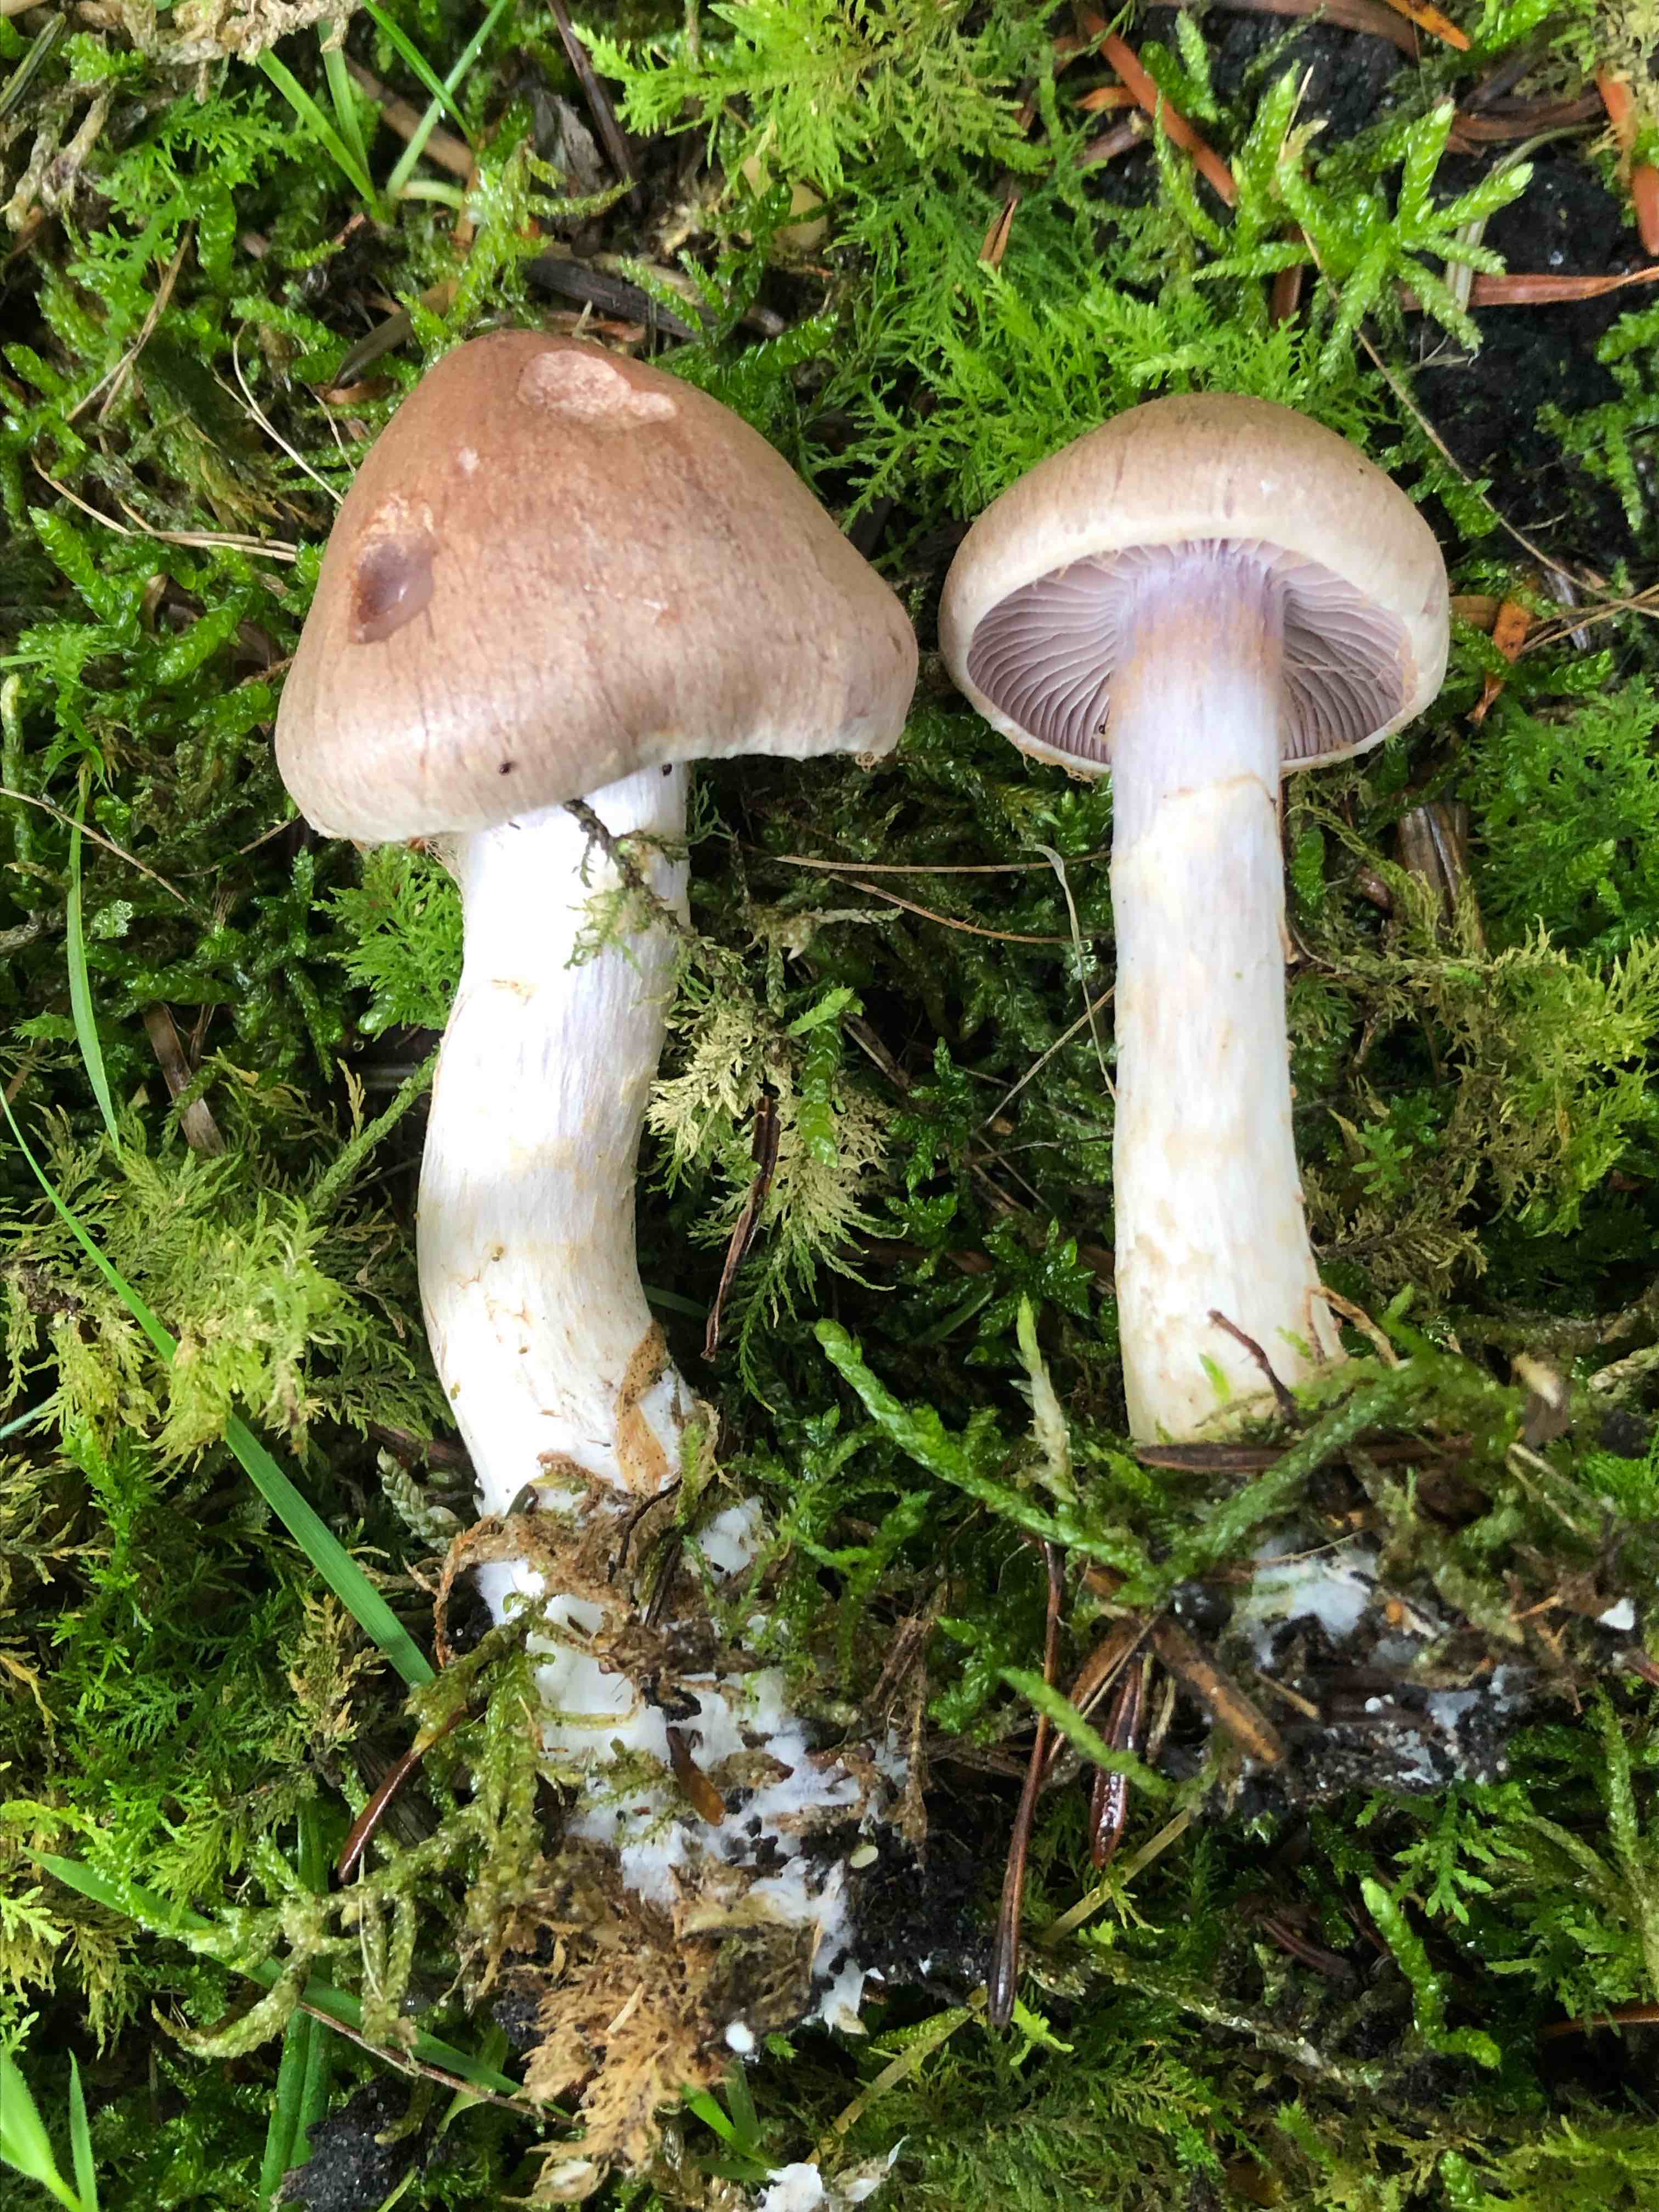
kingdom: Fungi
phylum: Basidiomycota
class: Agaricomycetes
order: Agaricales
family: Cortinariaceae
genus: Cortinarius
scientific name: Cortinarius
